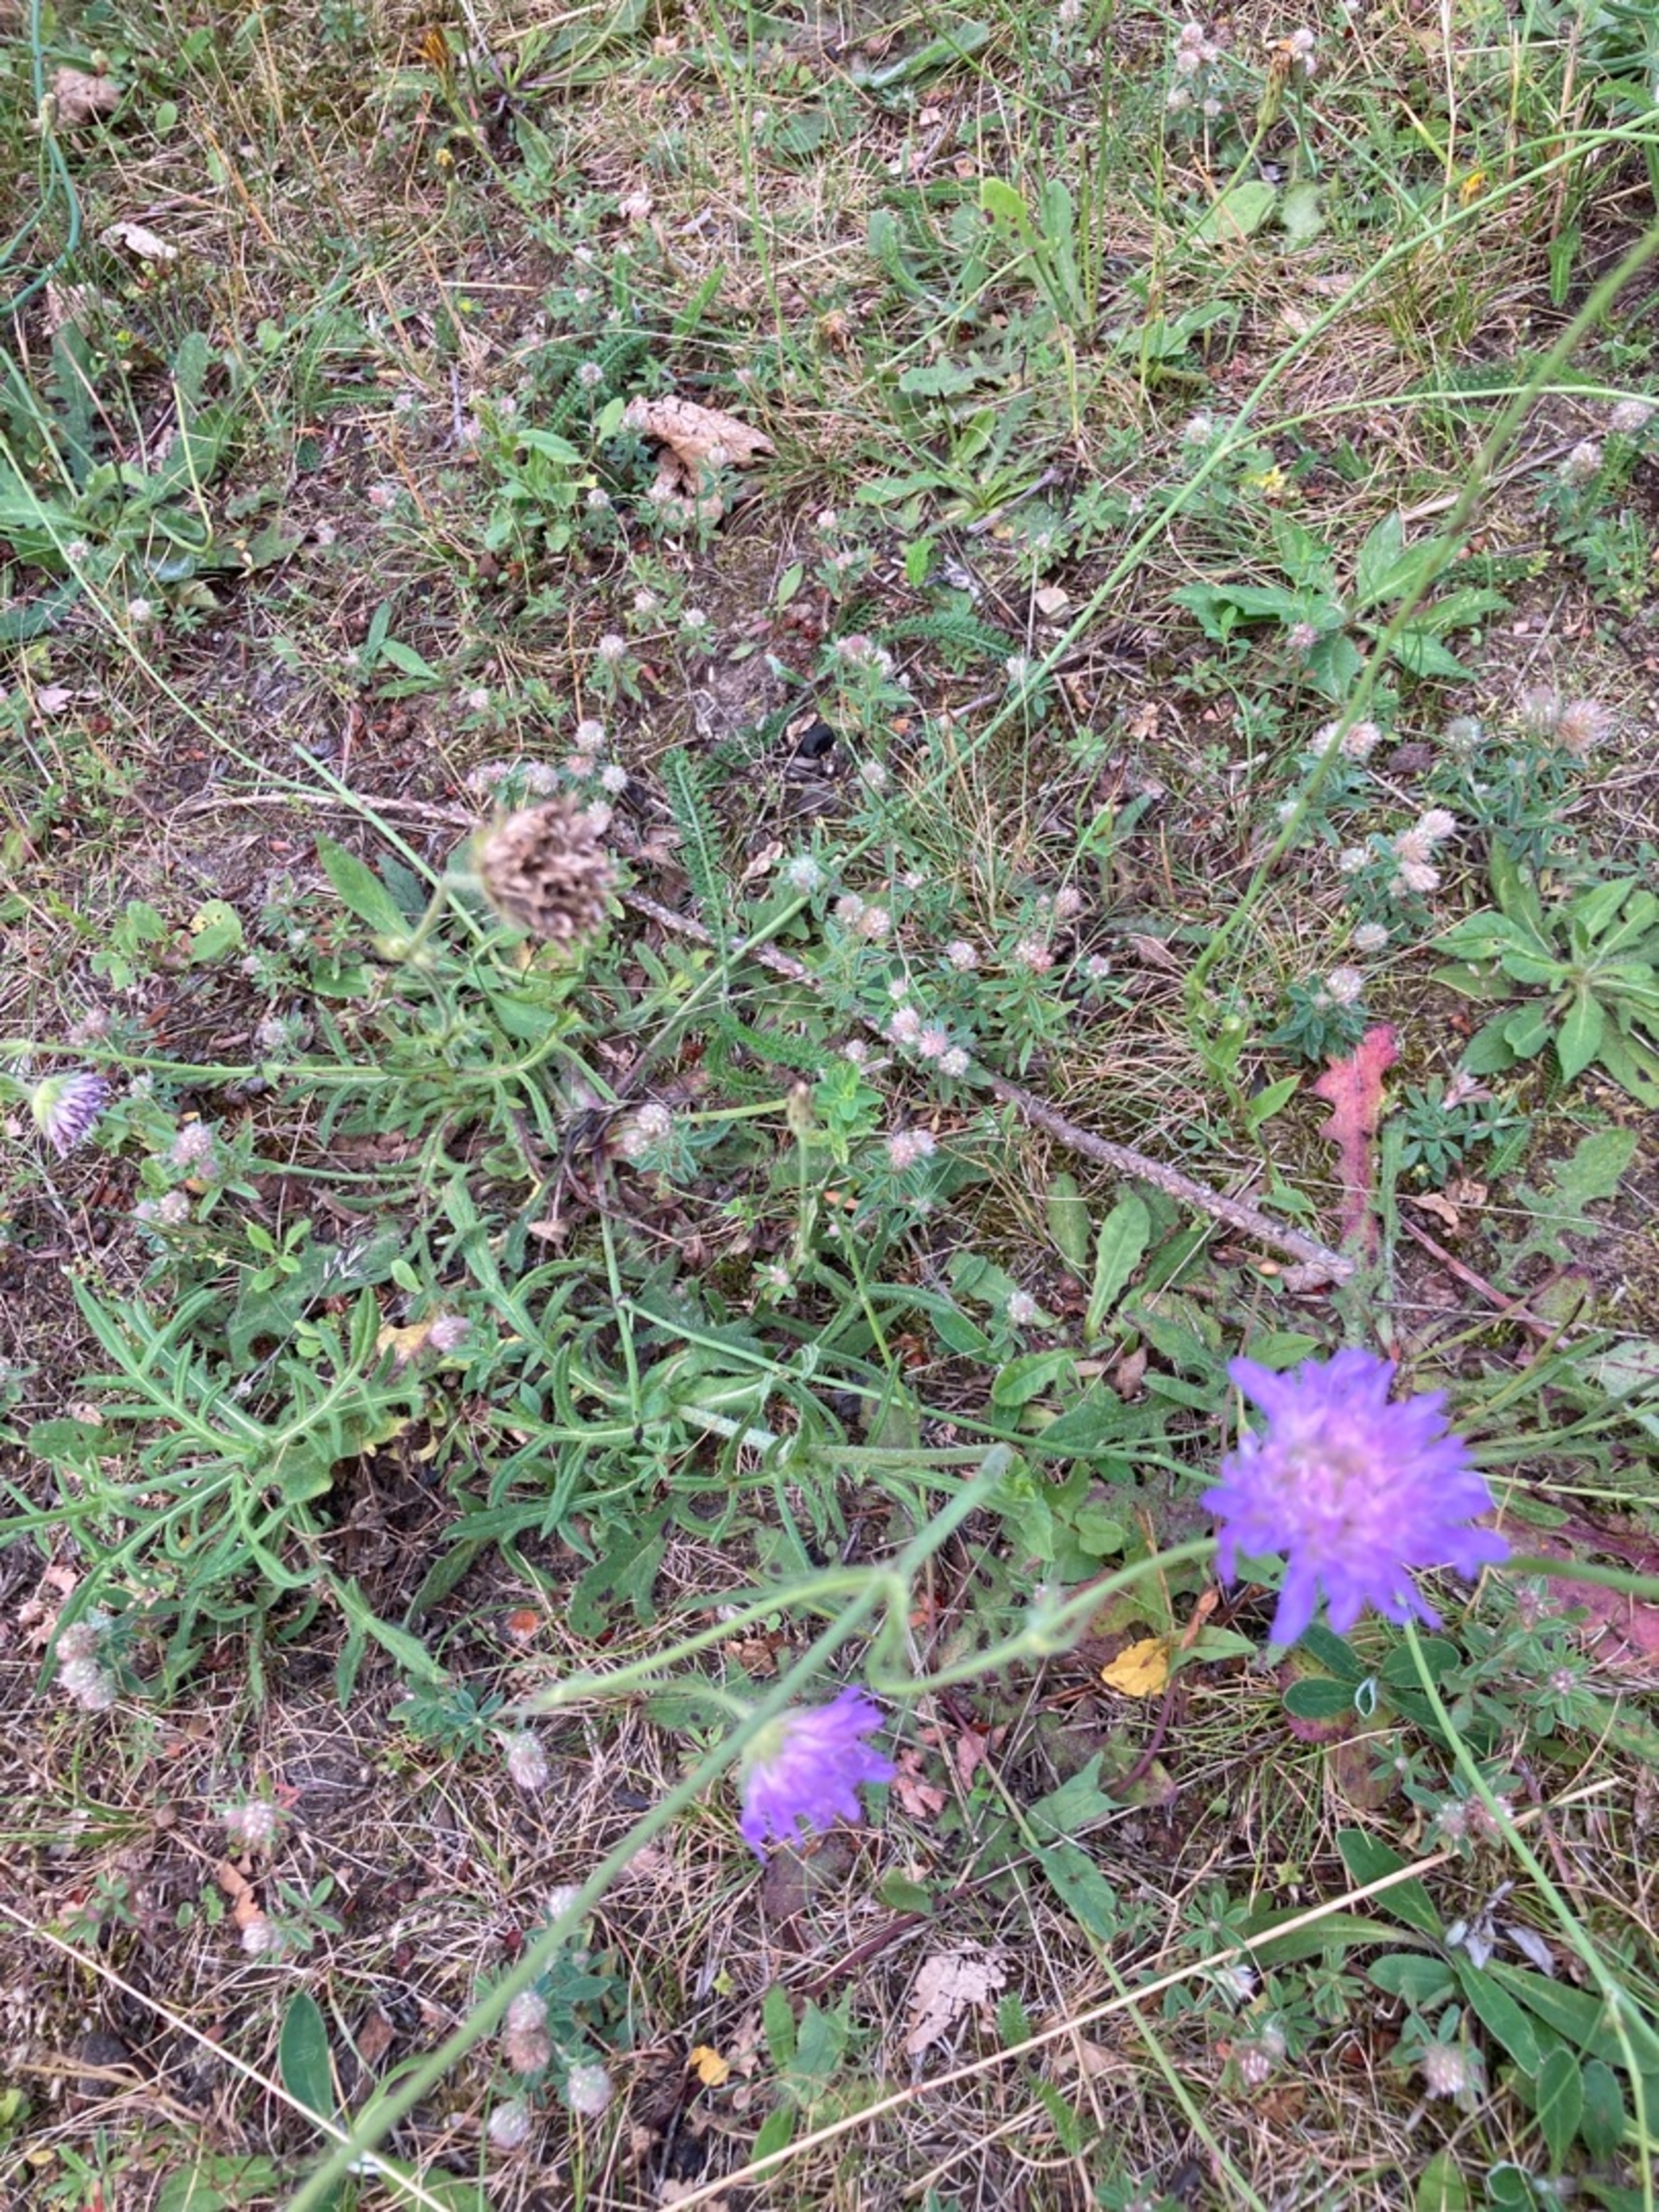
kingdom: Plantae
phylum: Tracheophyta
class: Magnoliopsida
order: Dipsacales
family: Caprifoliaceae
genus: Knautia
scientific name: Knautia arvensis
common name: Blåhat
